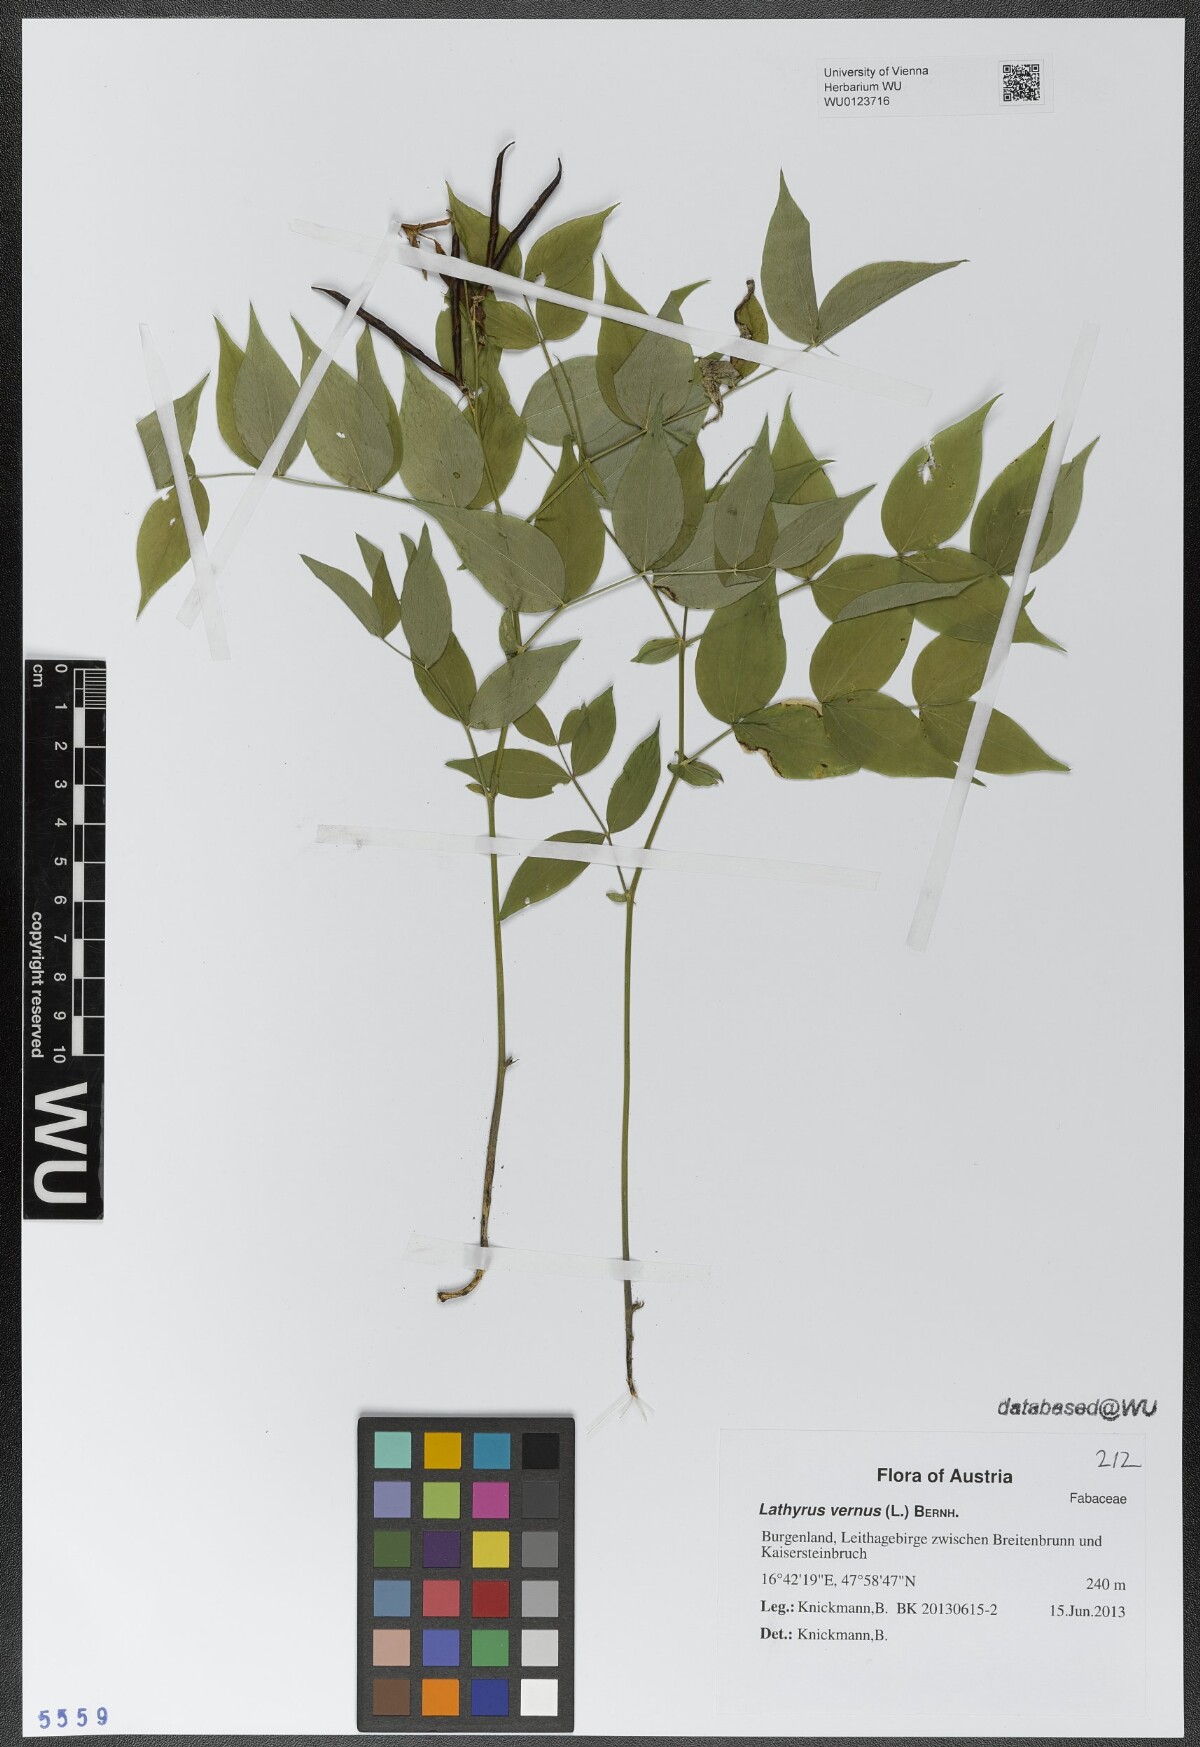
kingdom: Plantae
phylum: Tracheophyta
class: Magnoliopsida
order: Fabales
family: Fabaceae
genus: Lathyrus
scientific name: Lathyrus vernus
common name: Spring pea
